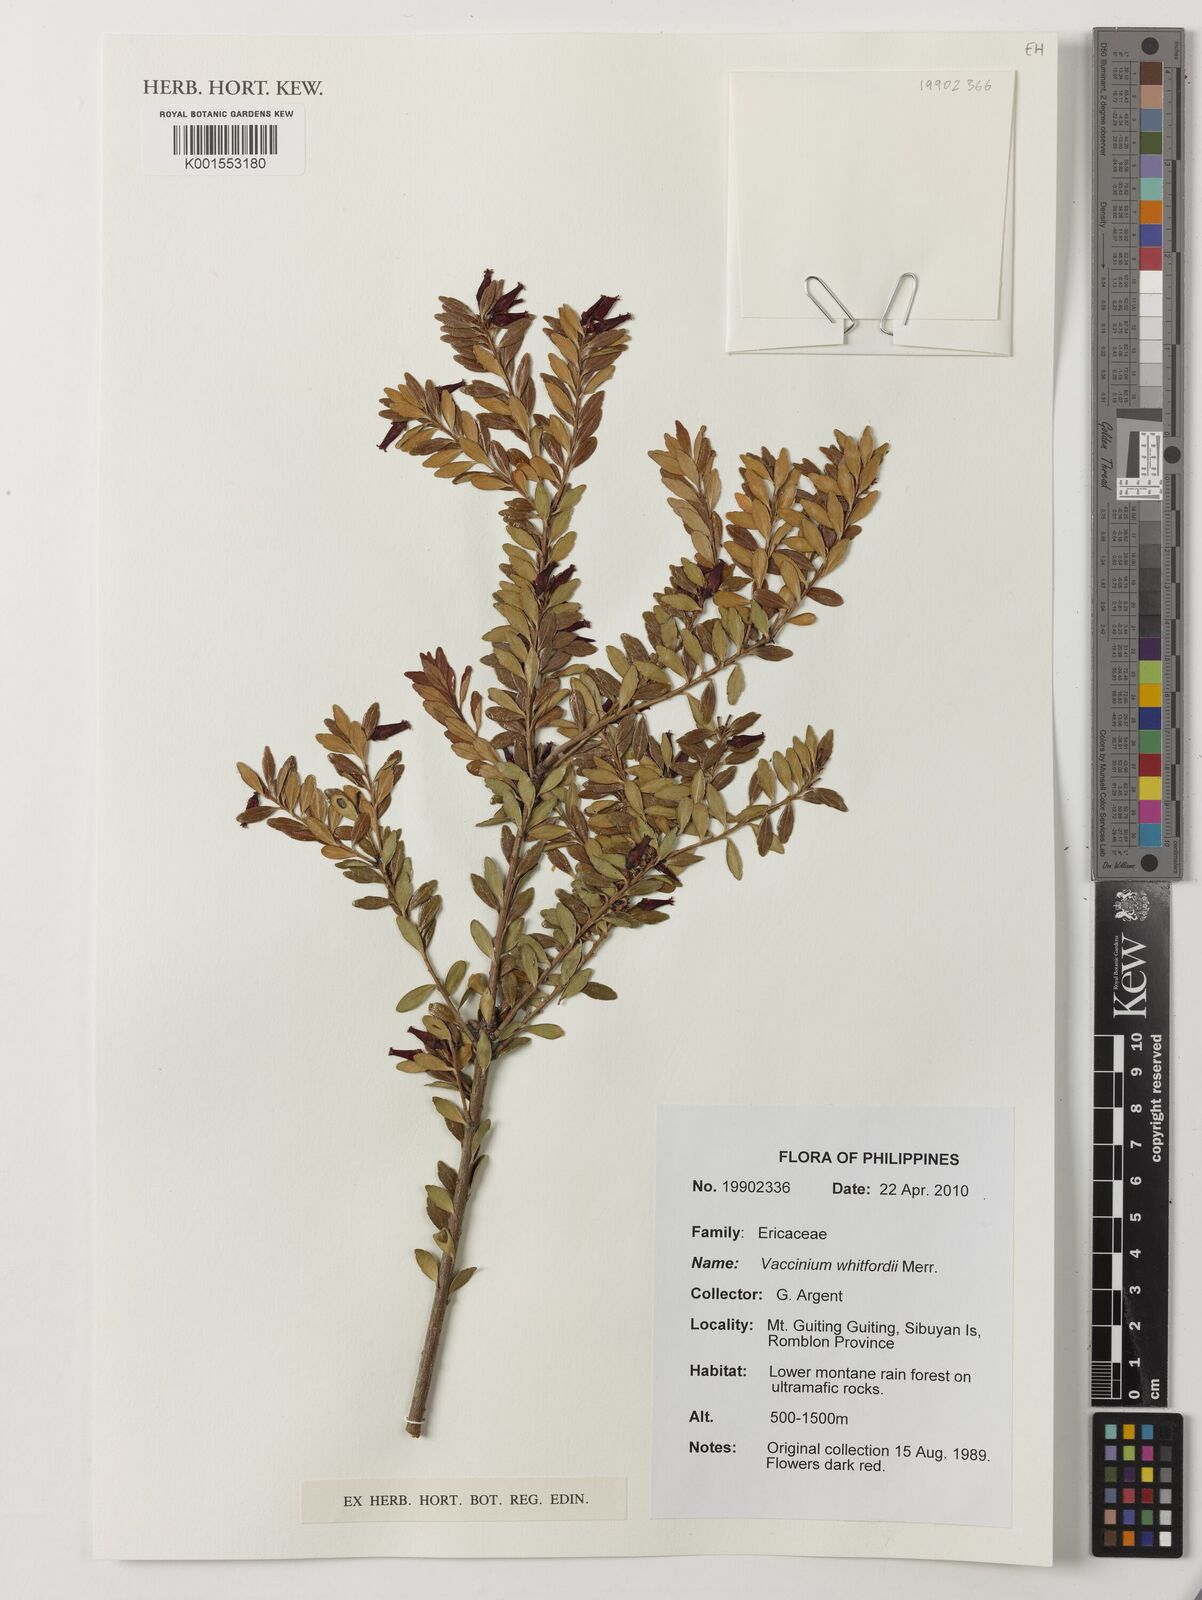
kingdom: Plantae
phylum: Tracheophyta
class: Magnoliopsida
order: Ericales
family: Ericaceae
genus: Vaccinium
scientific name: Vaccinium whitfordii
